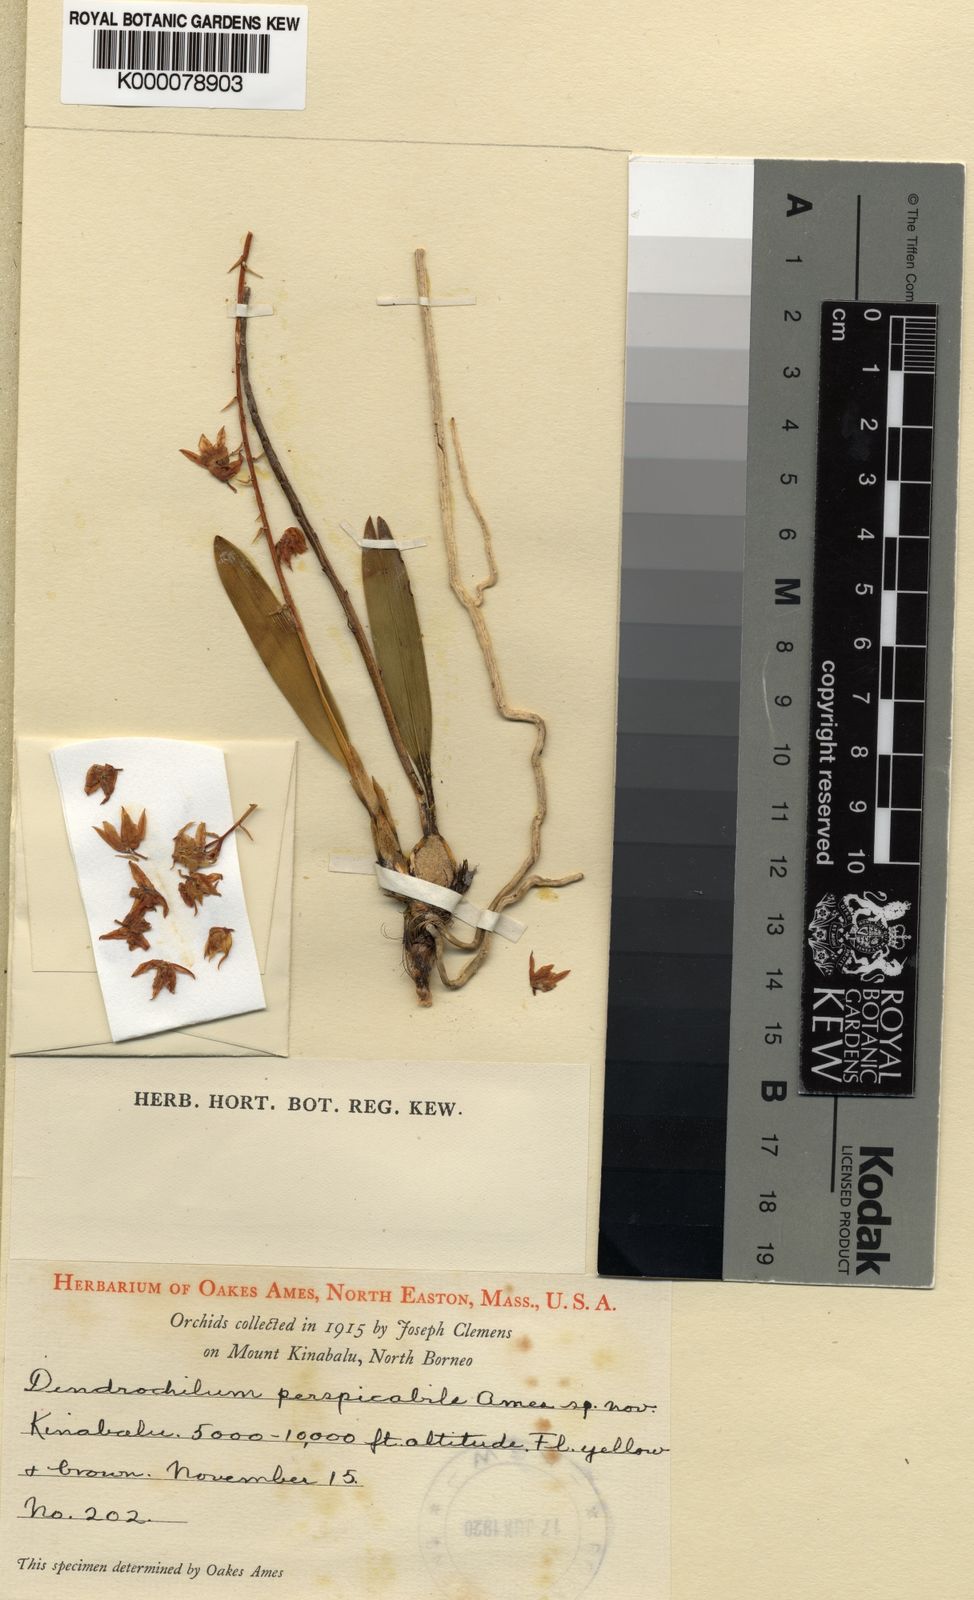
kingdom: Plantae
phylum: Tracheophyta
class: Liliopsida
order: Asparagales
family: Orchidaceae
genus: Coelogyne
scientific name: Coelogyne dewindtiana
